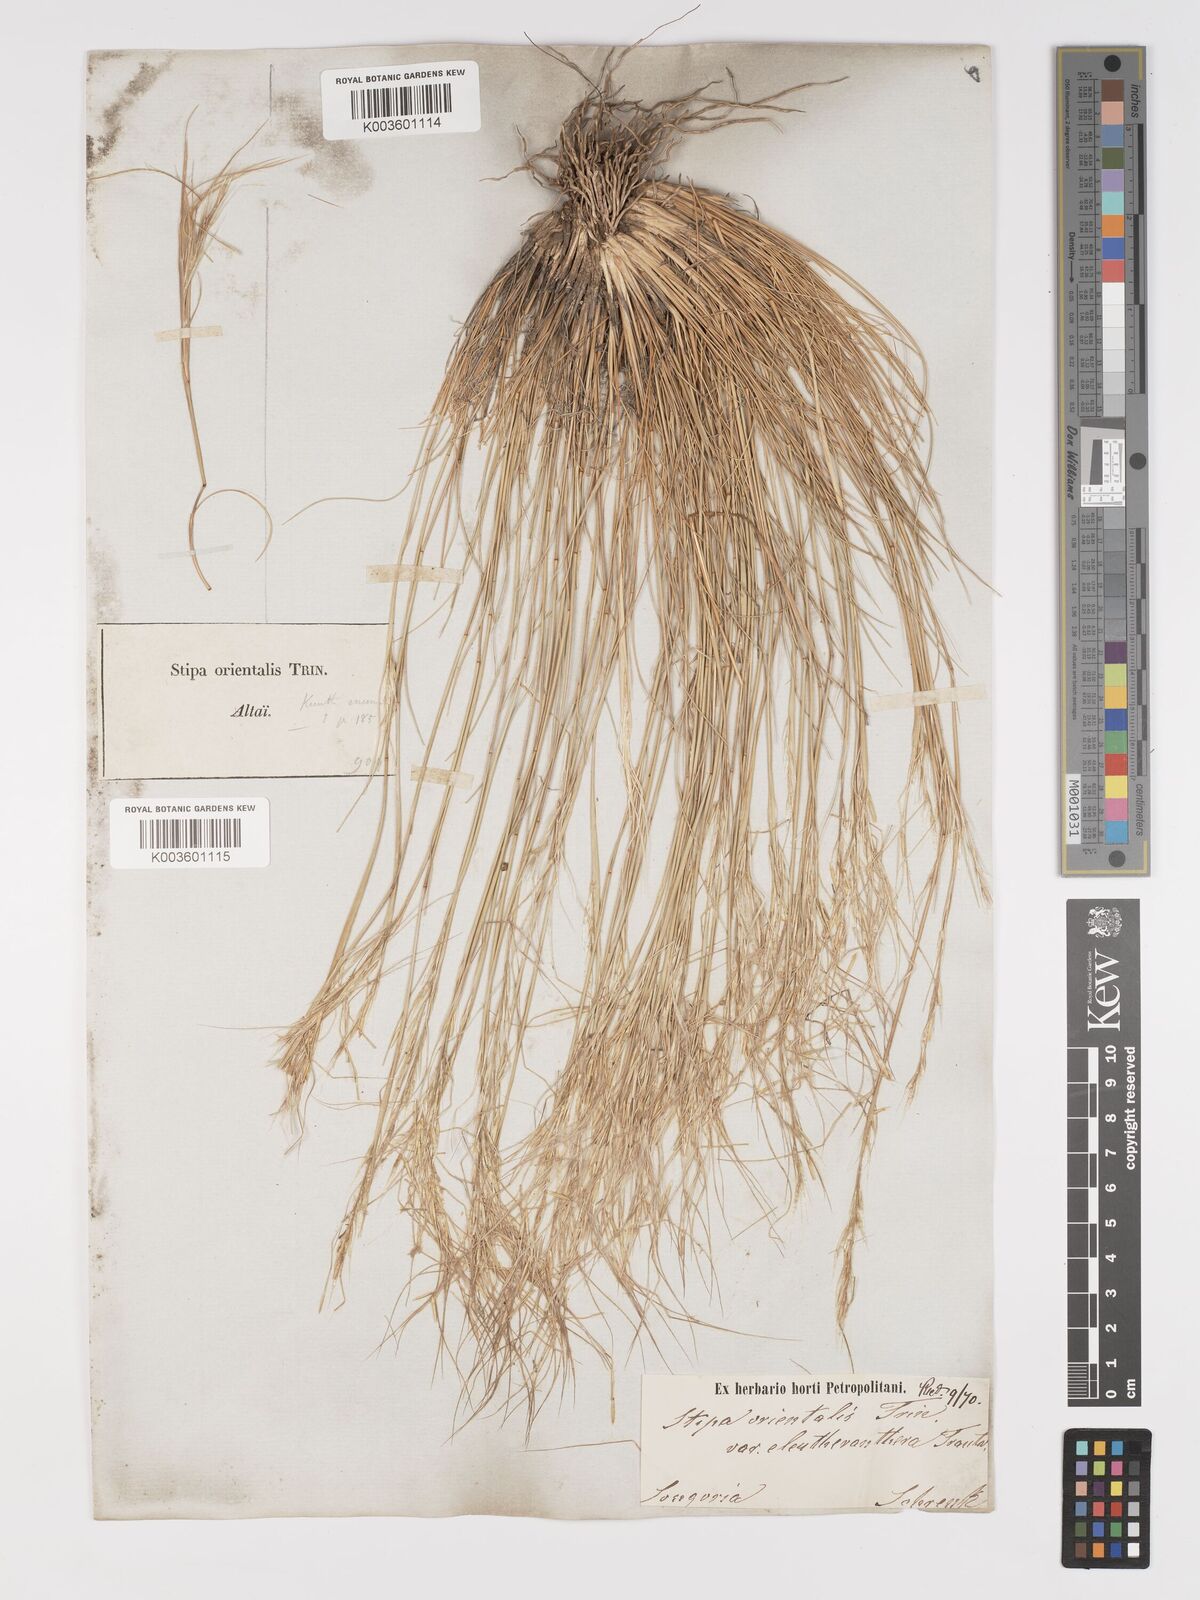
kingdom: Plantae
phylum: Tracheophyta
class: Liliopsida
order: Poales
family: Poaceae
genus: Stipa
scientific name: Stipa orientalis
